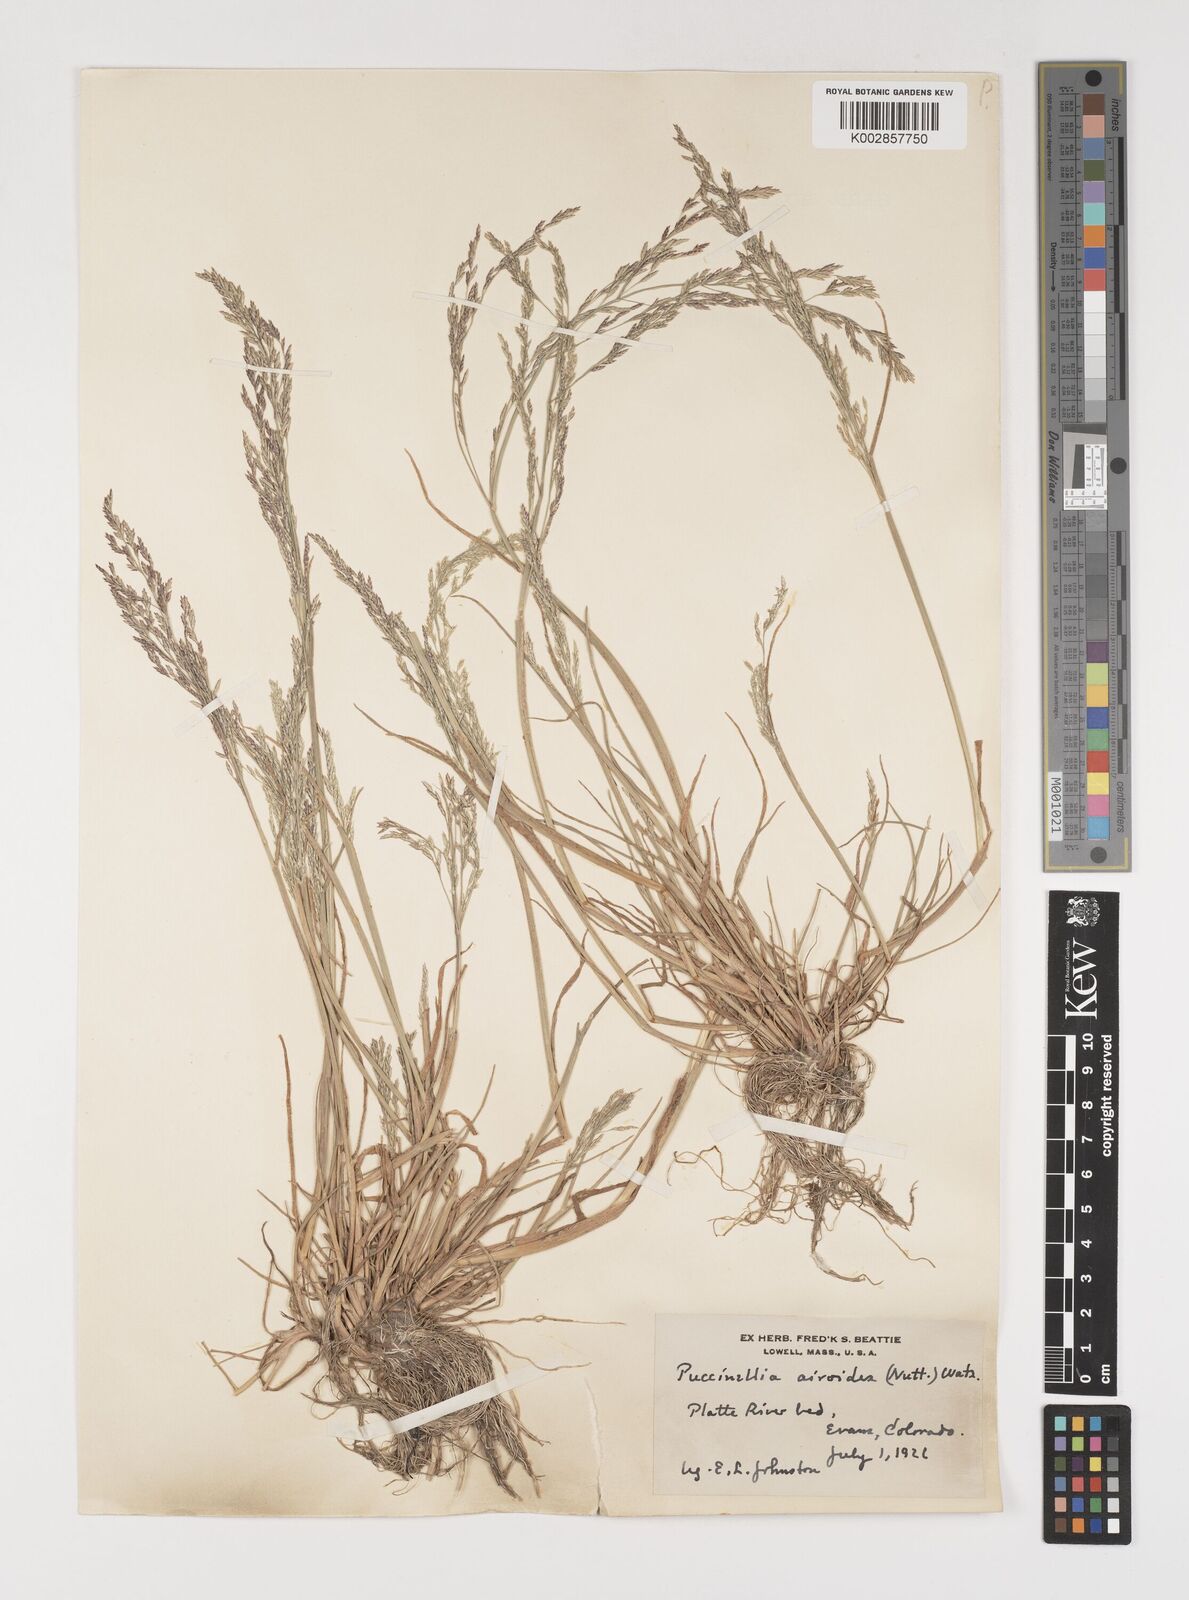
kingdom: Plantae
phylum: Tracheophyta
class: Liliopsida
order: Poales
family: Poaceae
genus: Puccinellia
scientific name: Puccinellia nuttalliana
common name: Nuttall's alkali grass
